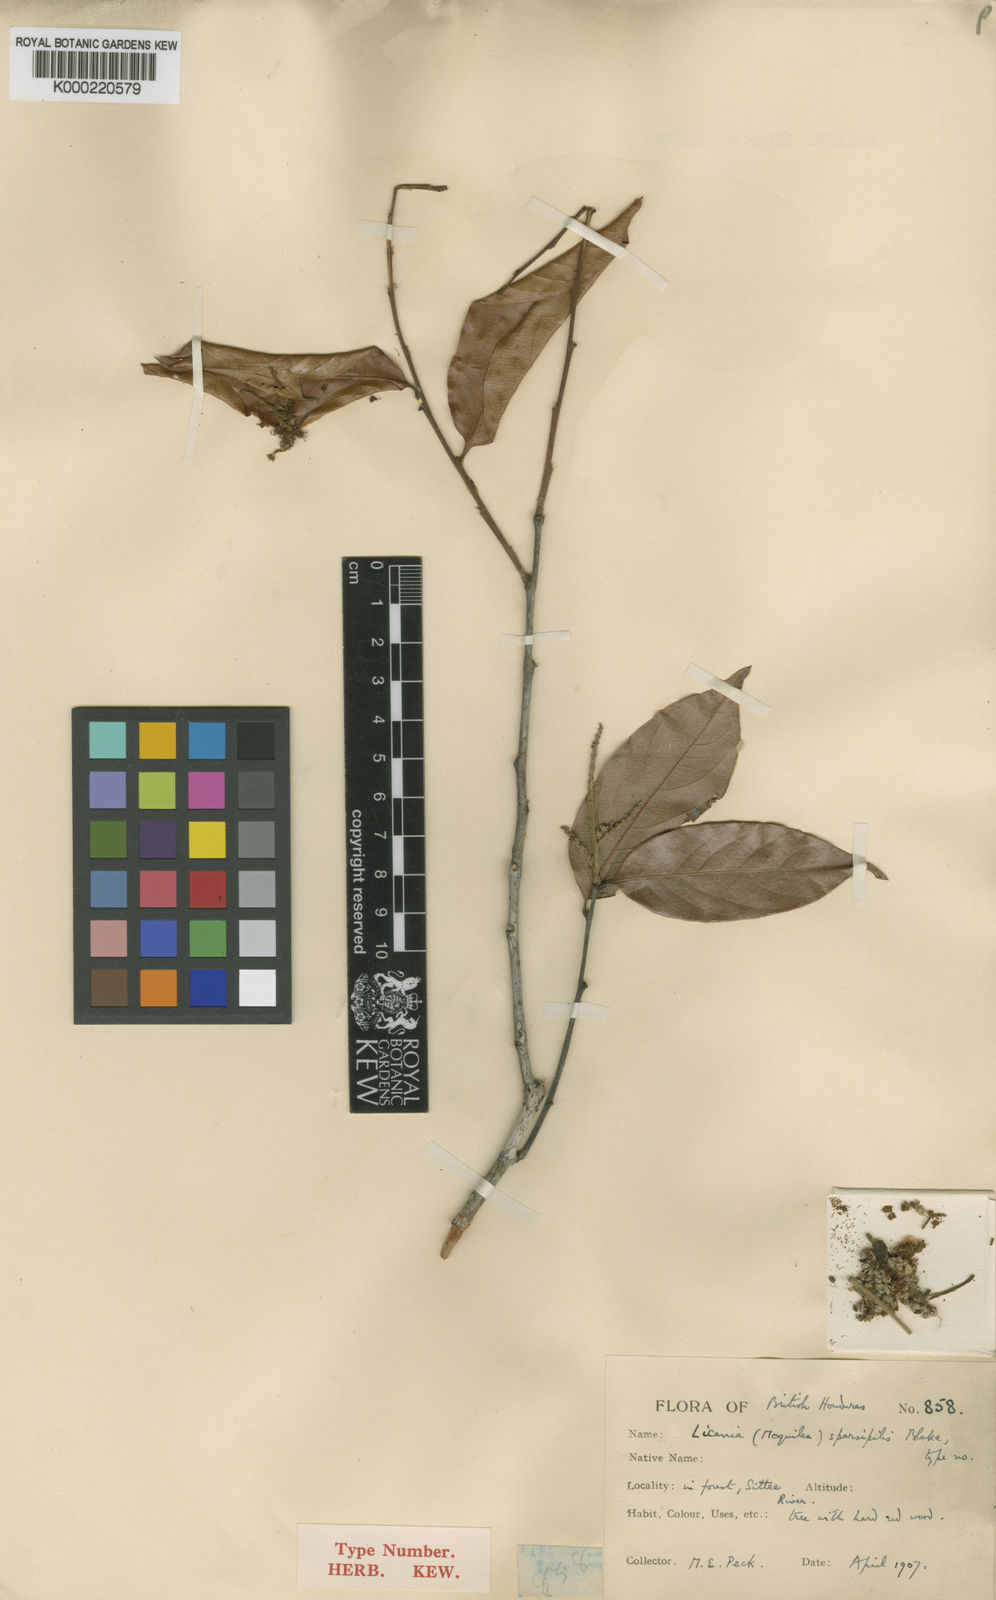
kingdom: Plantae
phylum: Tracheophyta
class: Magnoliopsida
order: Malpighiales
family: Chrysobalanaceae
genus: Leptobalanus
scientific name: Leptobalanus sparsipilis
